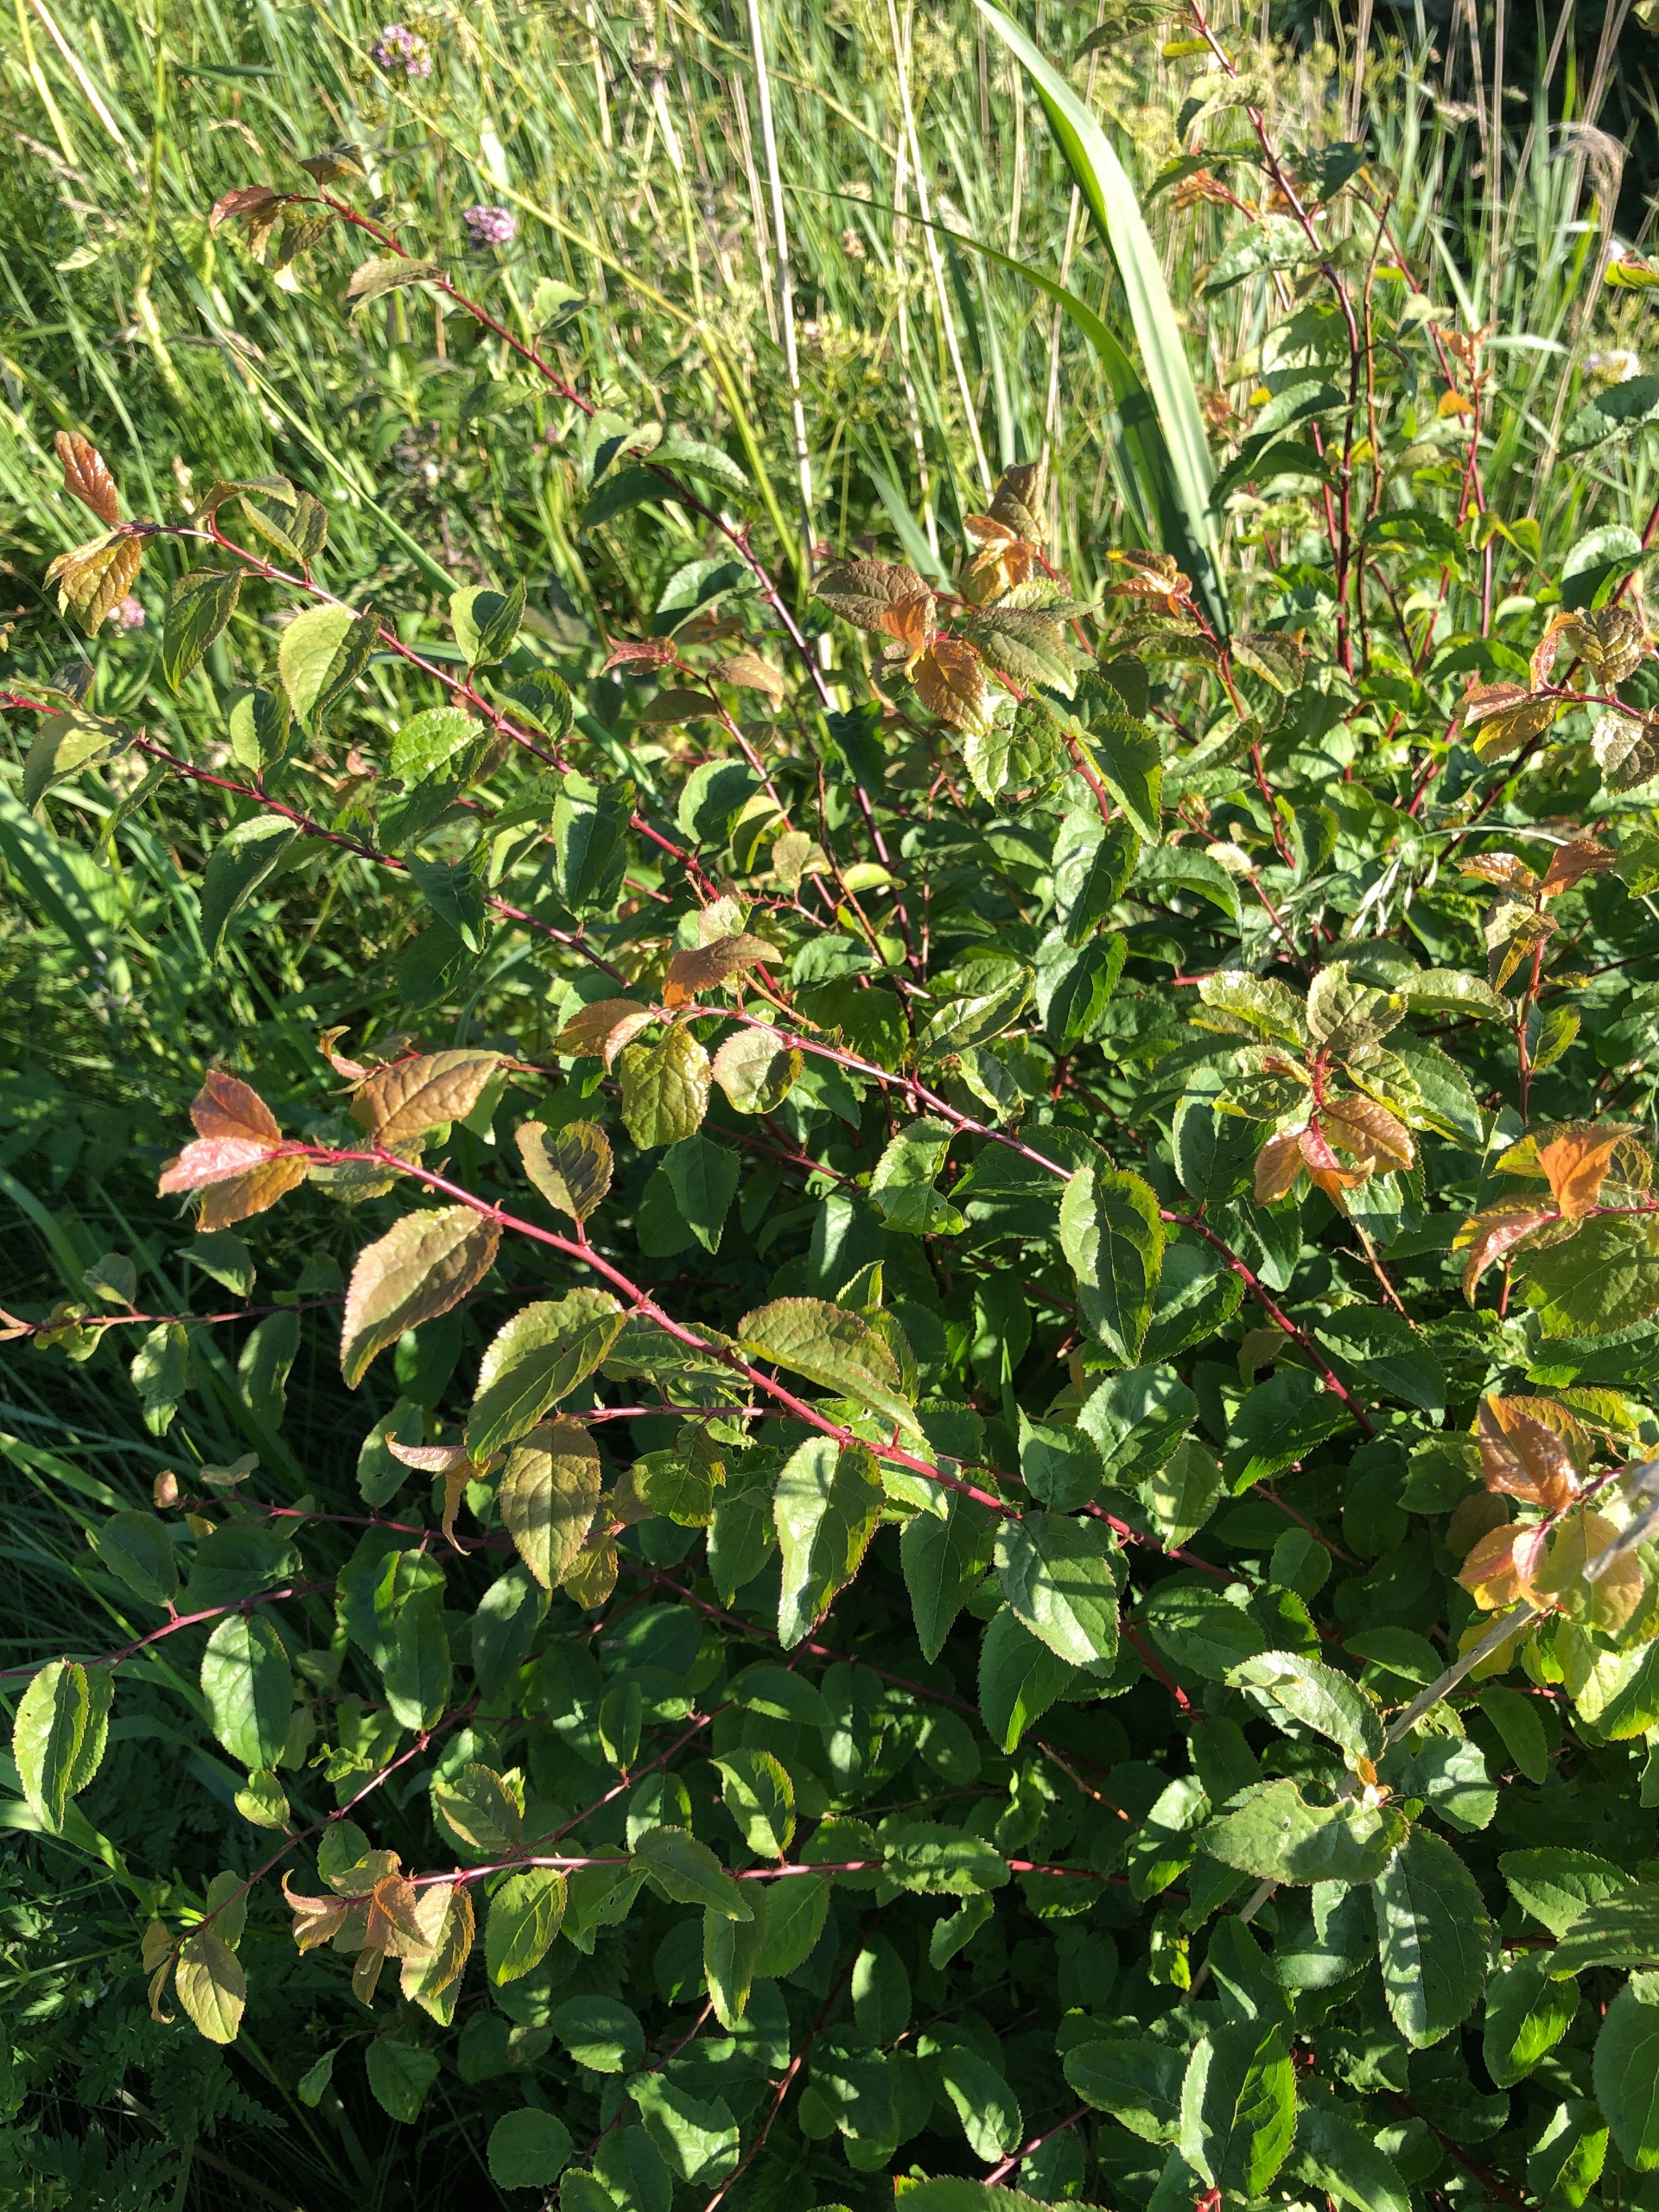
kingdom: Plantae
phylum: Tracheophyta
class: Magnoliopsida
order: Rosales
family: Rosaceae
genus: Prunus
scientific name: Prunus cerasifera
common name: Mirabel
